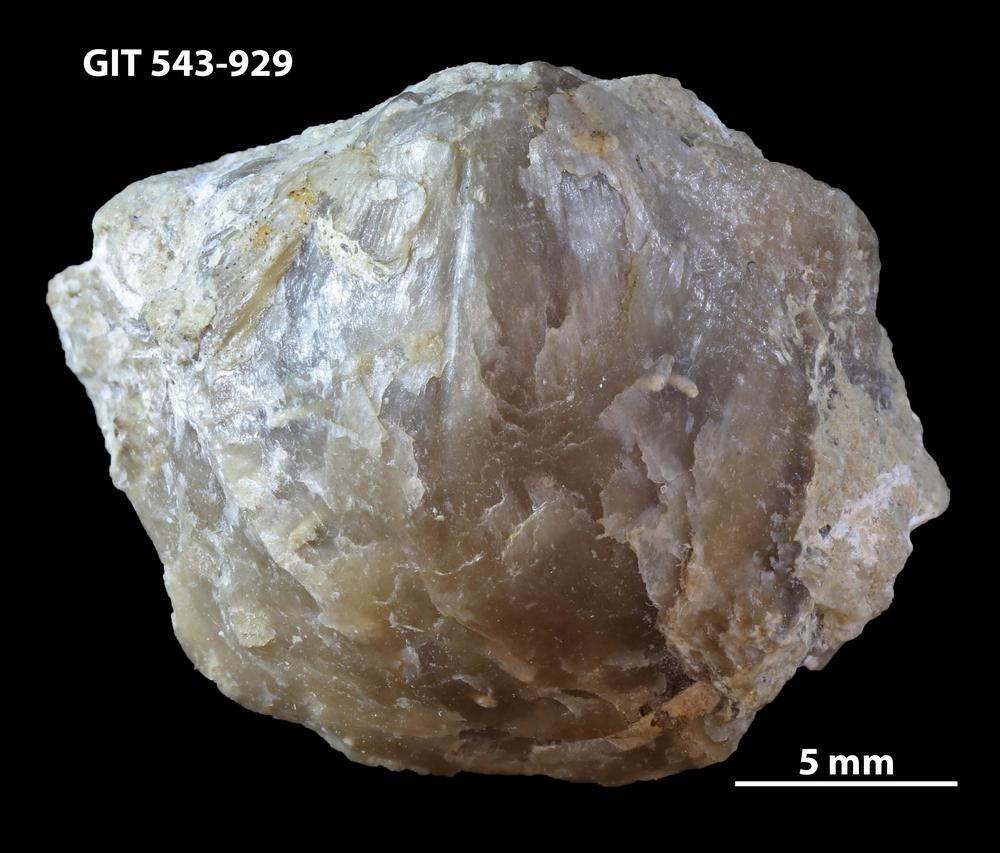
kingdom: Animalia
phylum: Brachiopoda
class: Rhynchonellata
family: Clitambonitidae
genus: Clitambonites
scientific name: Clitambonites
